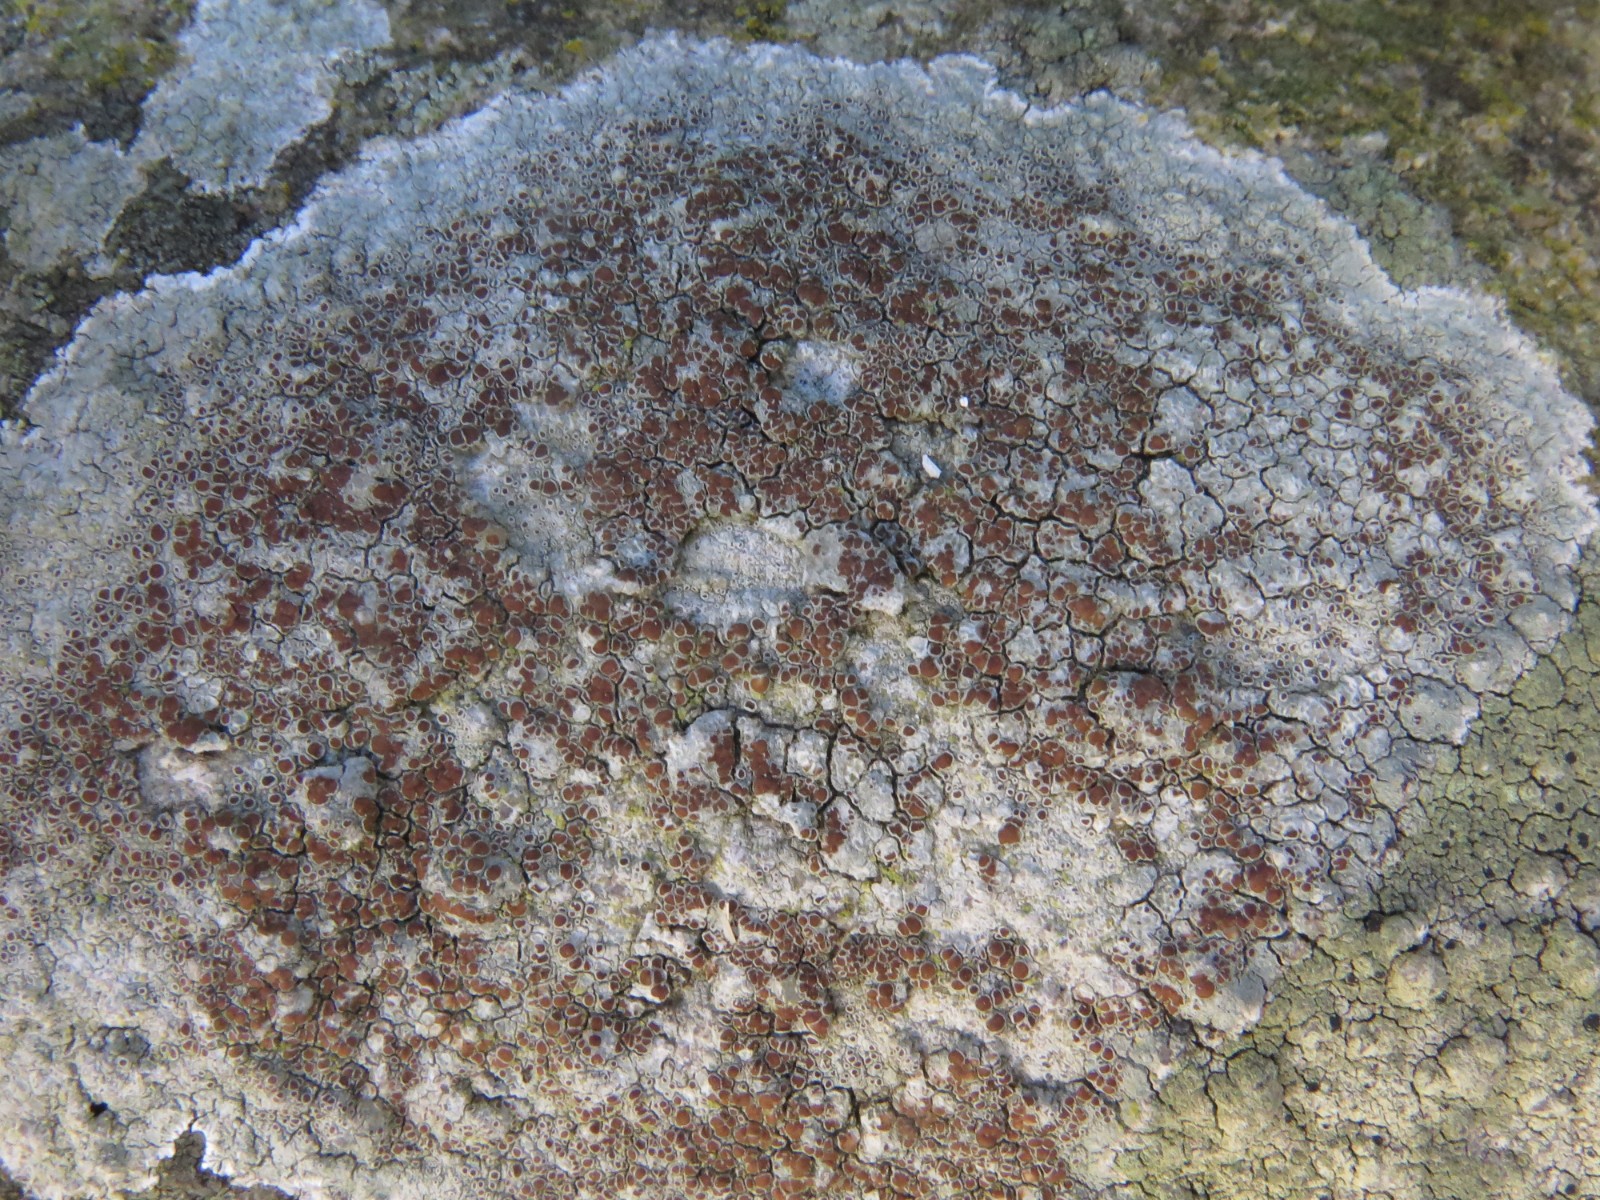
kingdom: Fungi
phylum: Ascomycota
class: Lecanoromycetes
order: Lecanorales
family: Lecanoraceae
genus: Lecanora
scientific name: Lecanora campestris
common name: mur-kantskivelav
